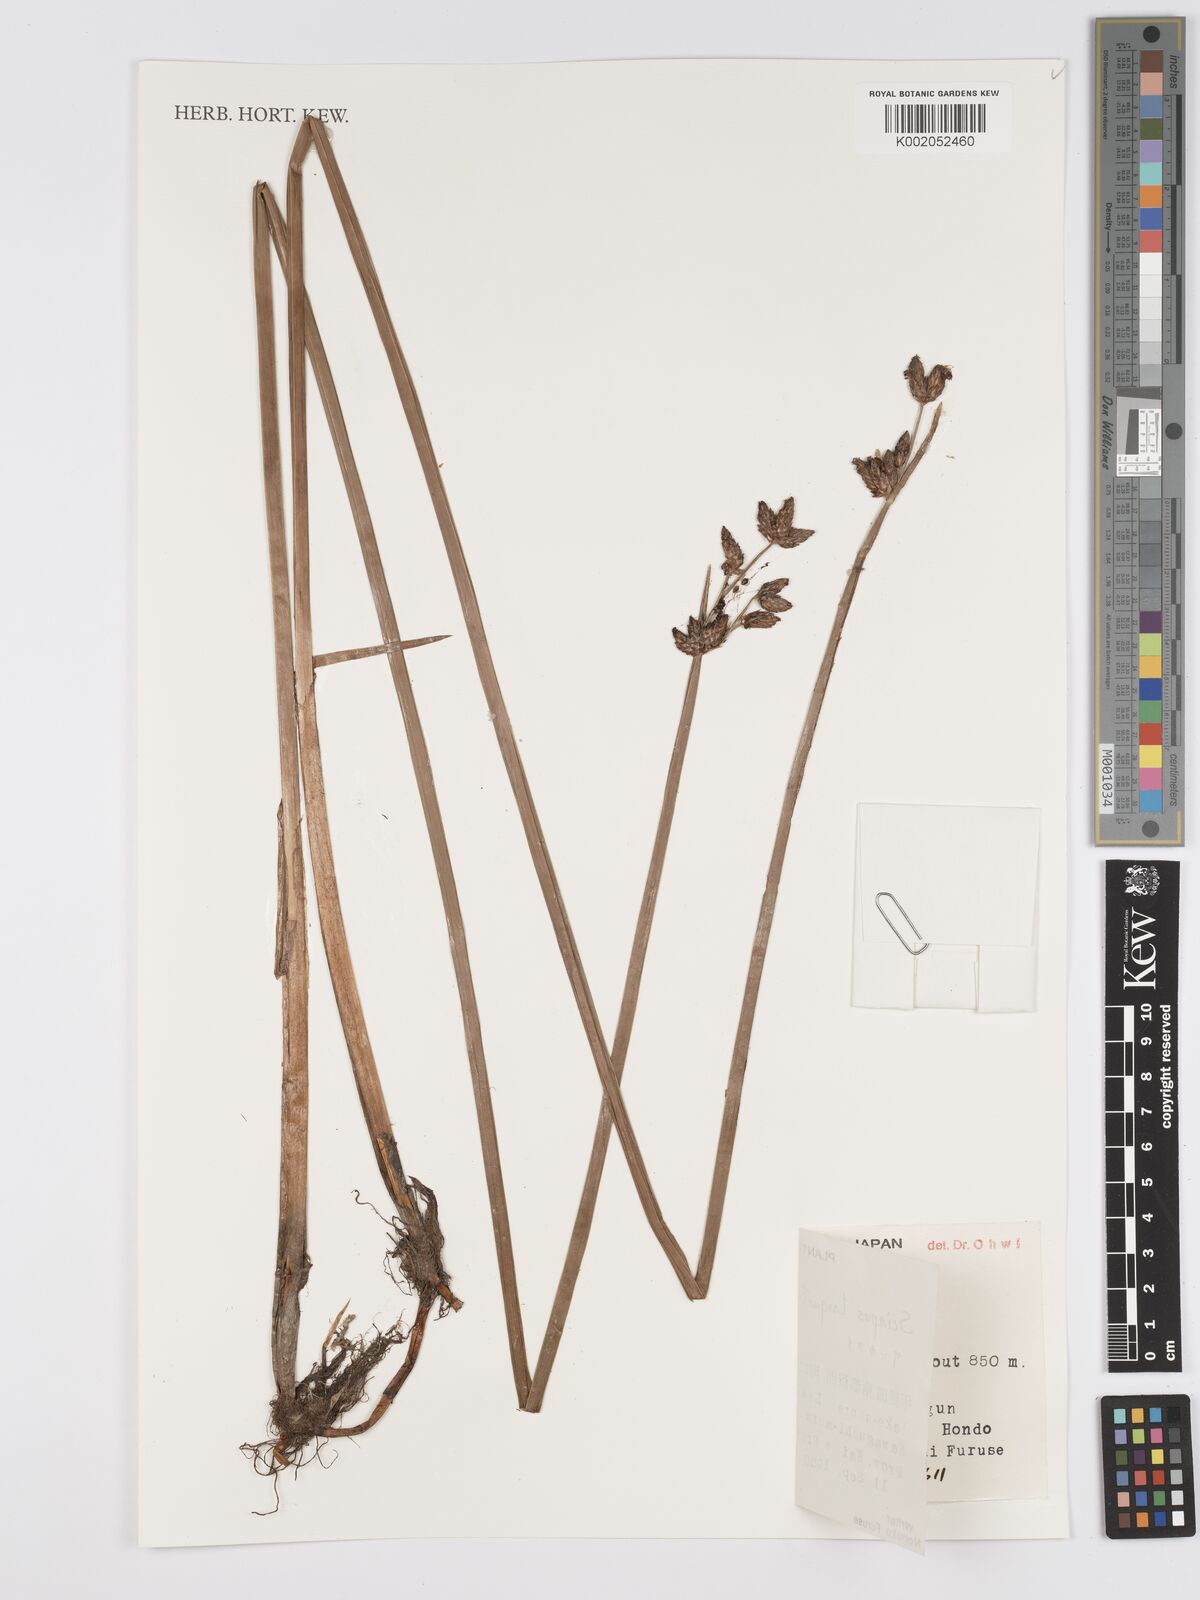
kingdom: Plantae
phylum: Tracheophyta
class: Liliopsida
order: Poales
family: Cyperaceae
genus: Schoenoplectus
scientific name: Schoenoplectus triqueter
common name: Triangular club-rush
